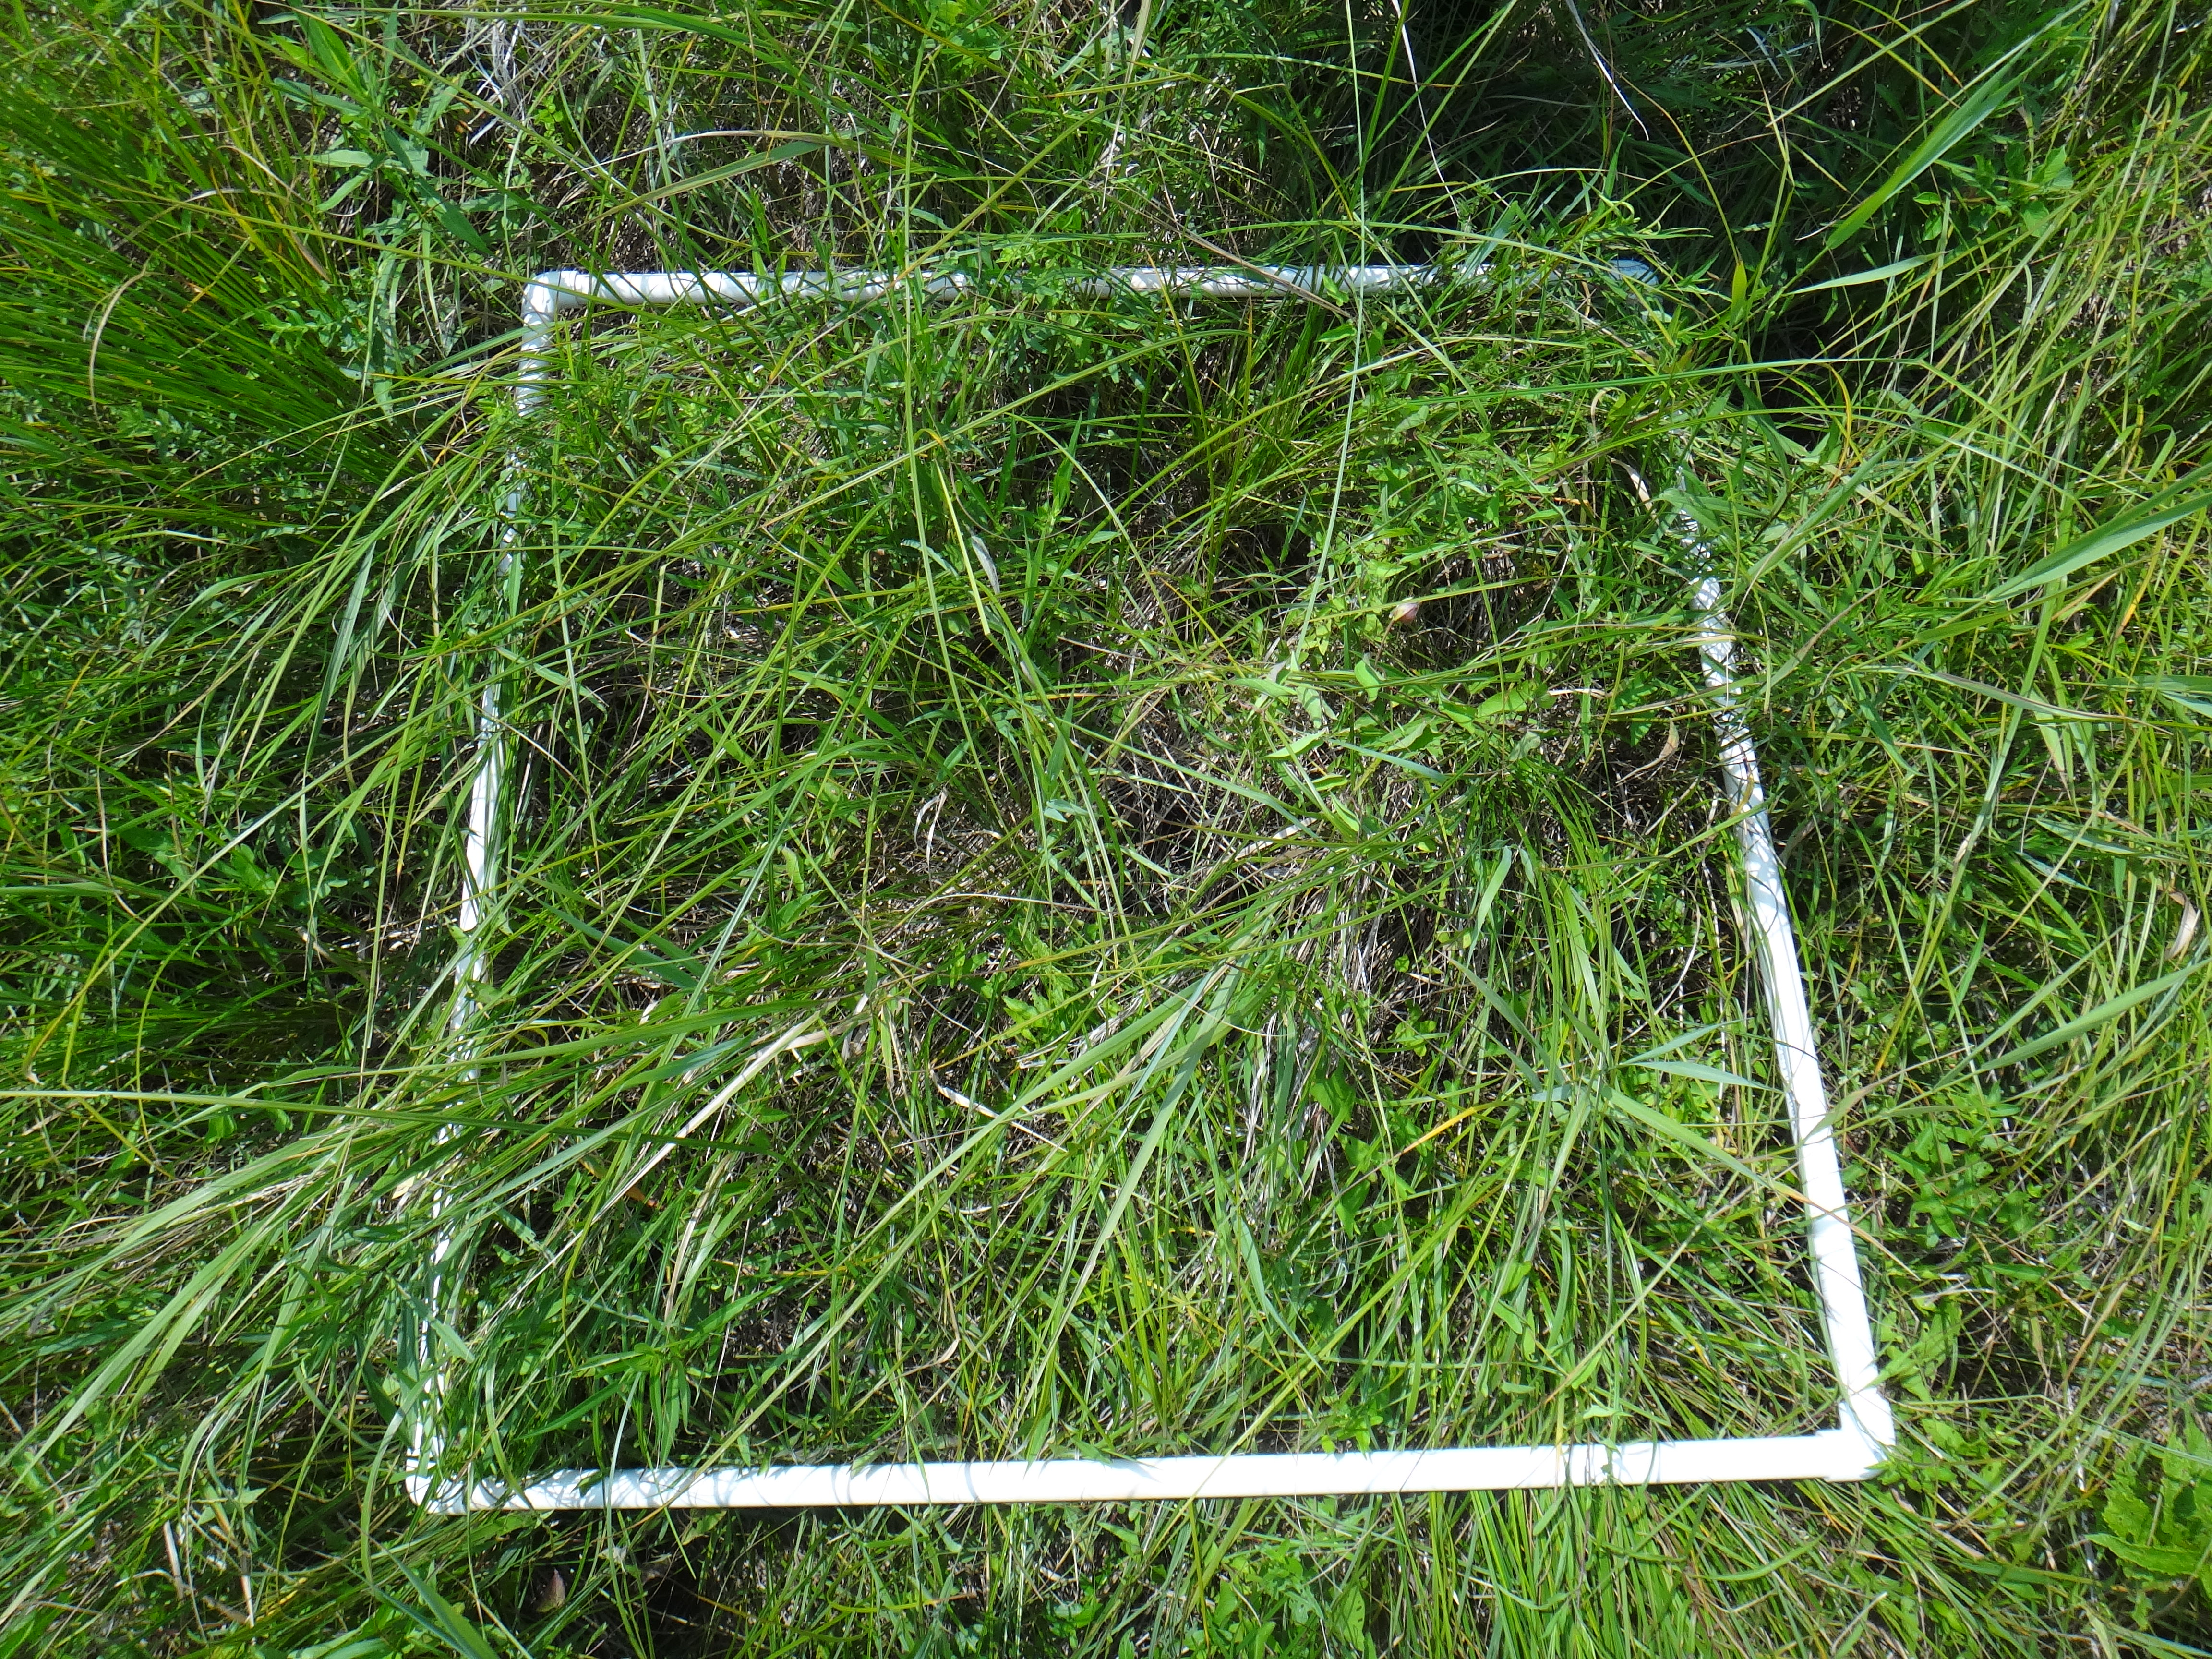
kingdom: Plantae
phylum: Tracheophyta
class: Liliopsida
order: Poales
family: Cyperaceae
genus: Carex
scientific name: Carex stricta
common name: Hummock sedge
